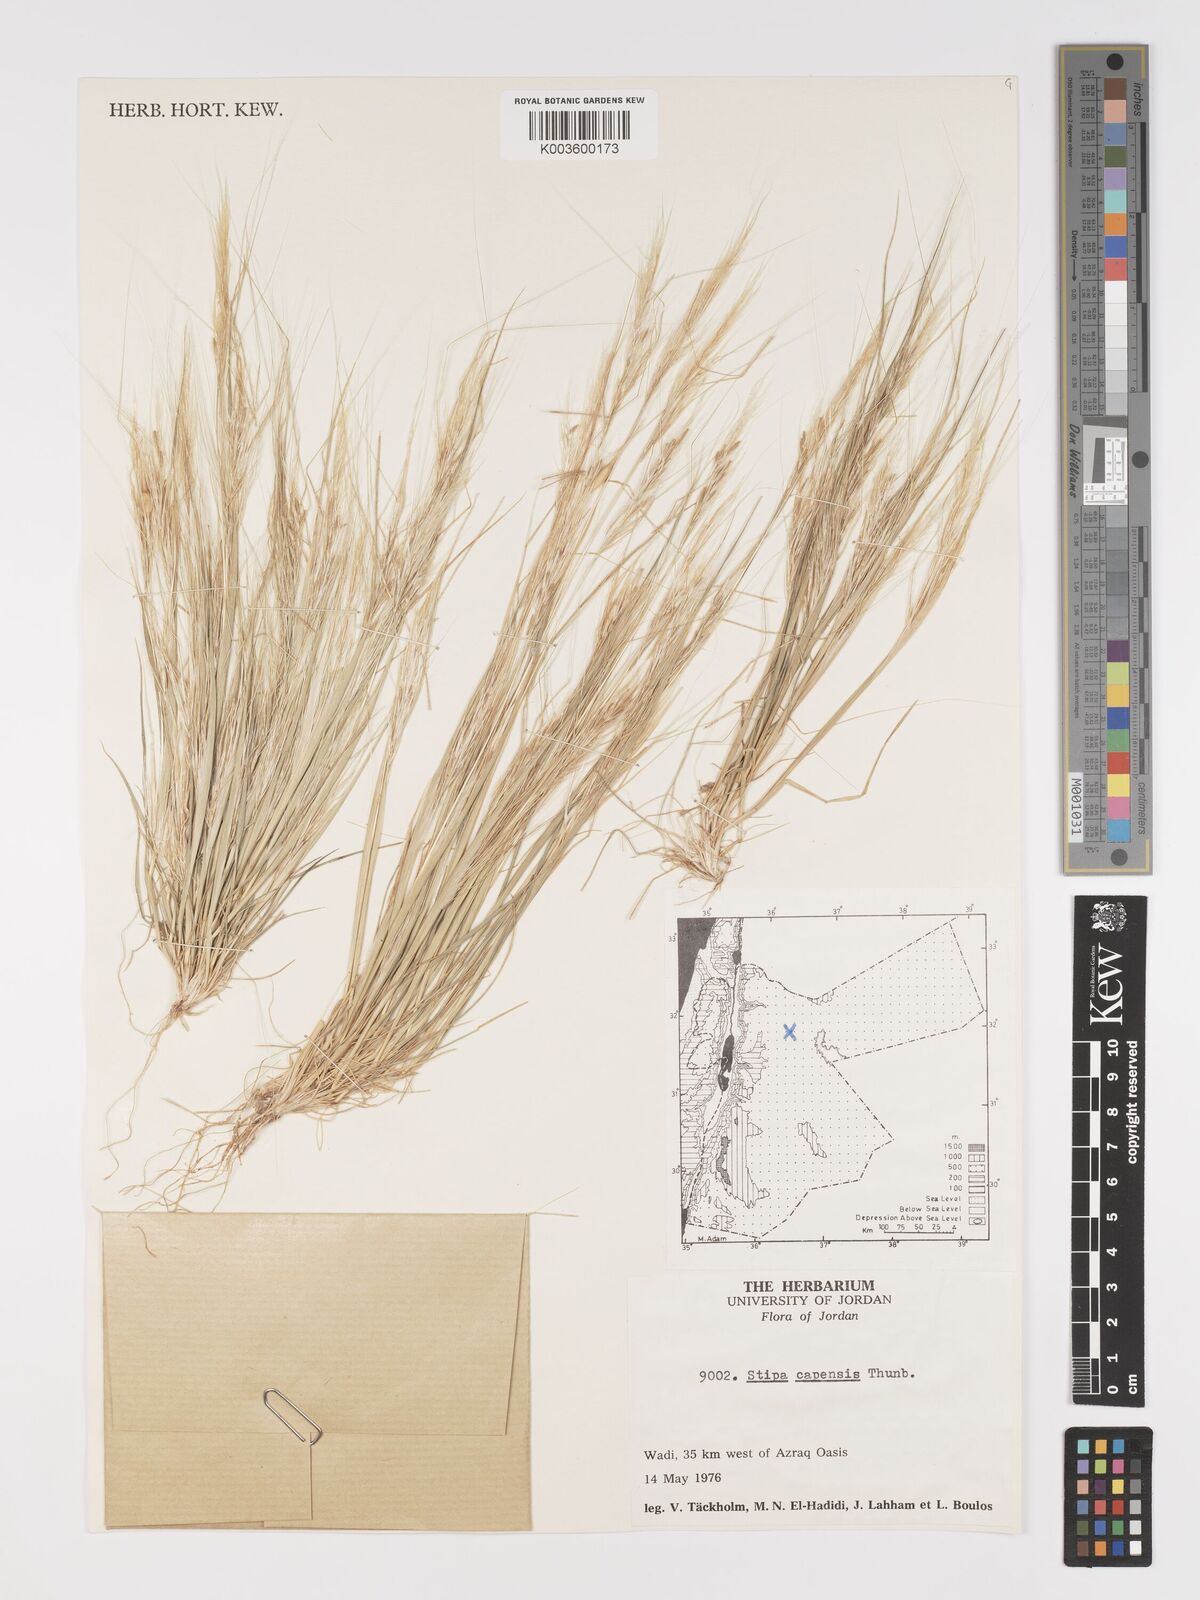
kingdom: Plantae
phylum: Tracheophyta
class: Liliopsida
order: Poales
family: Poaceae
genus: Stipellula
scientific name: Stipellula capensis
